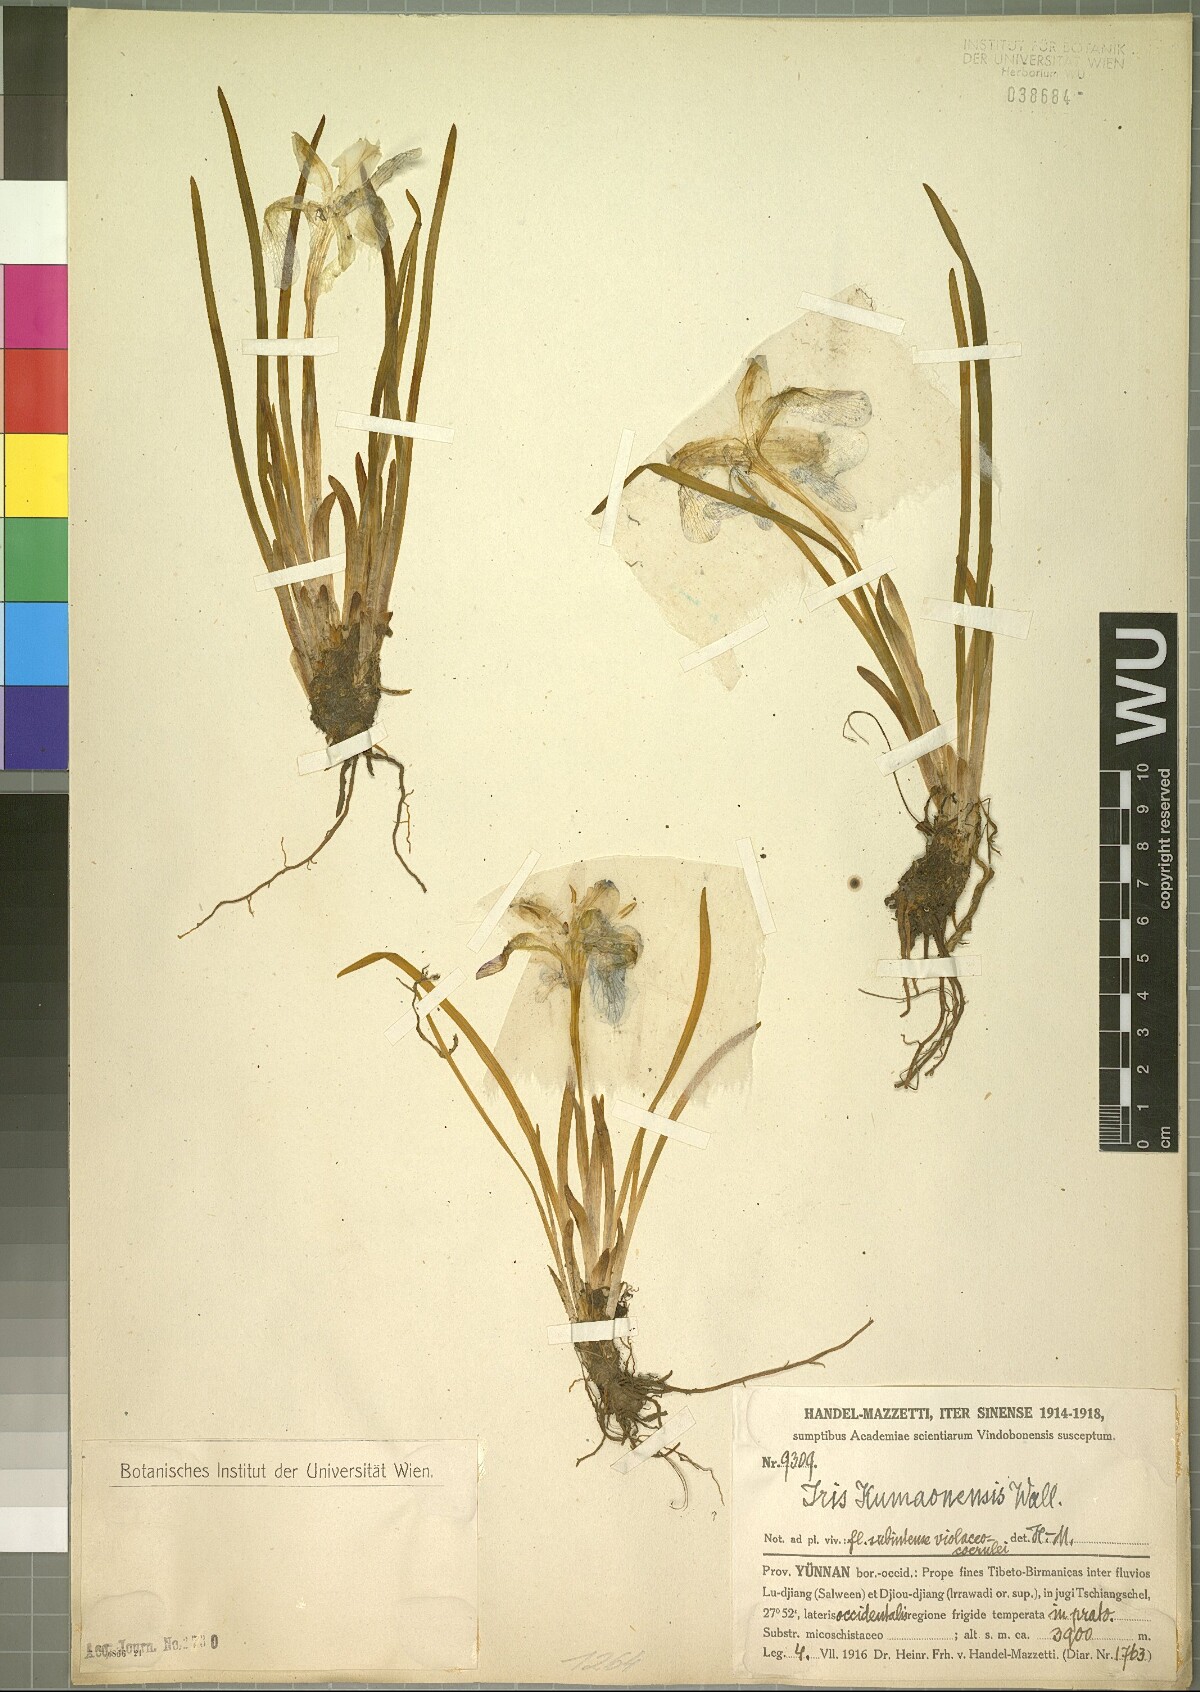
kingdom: Plantae
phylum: Tracheophyta
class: Liliopsida
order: Asparagales
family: Iridaceae
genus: Iris
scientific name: Iris kemaonensis
